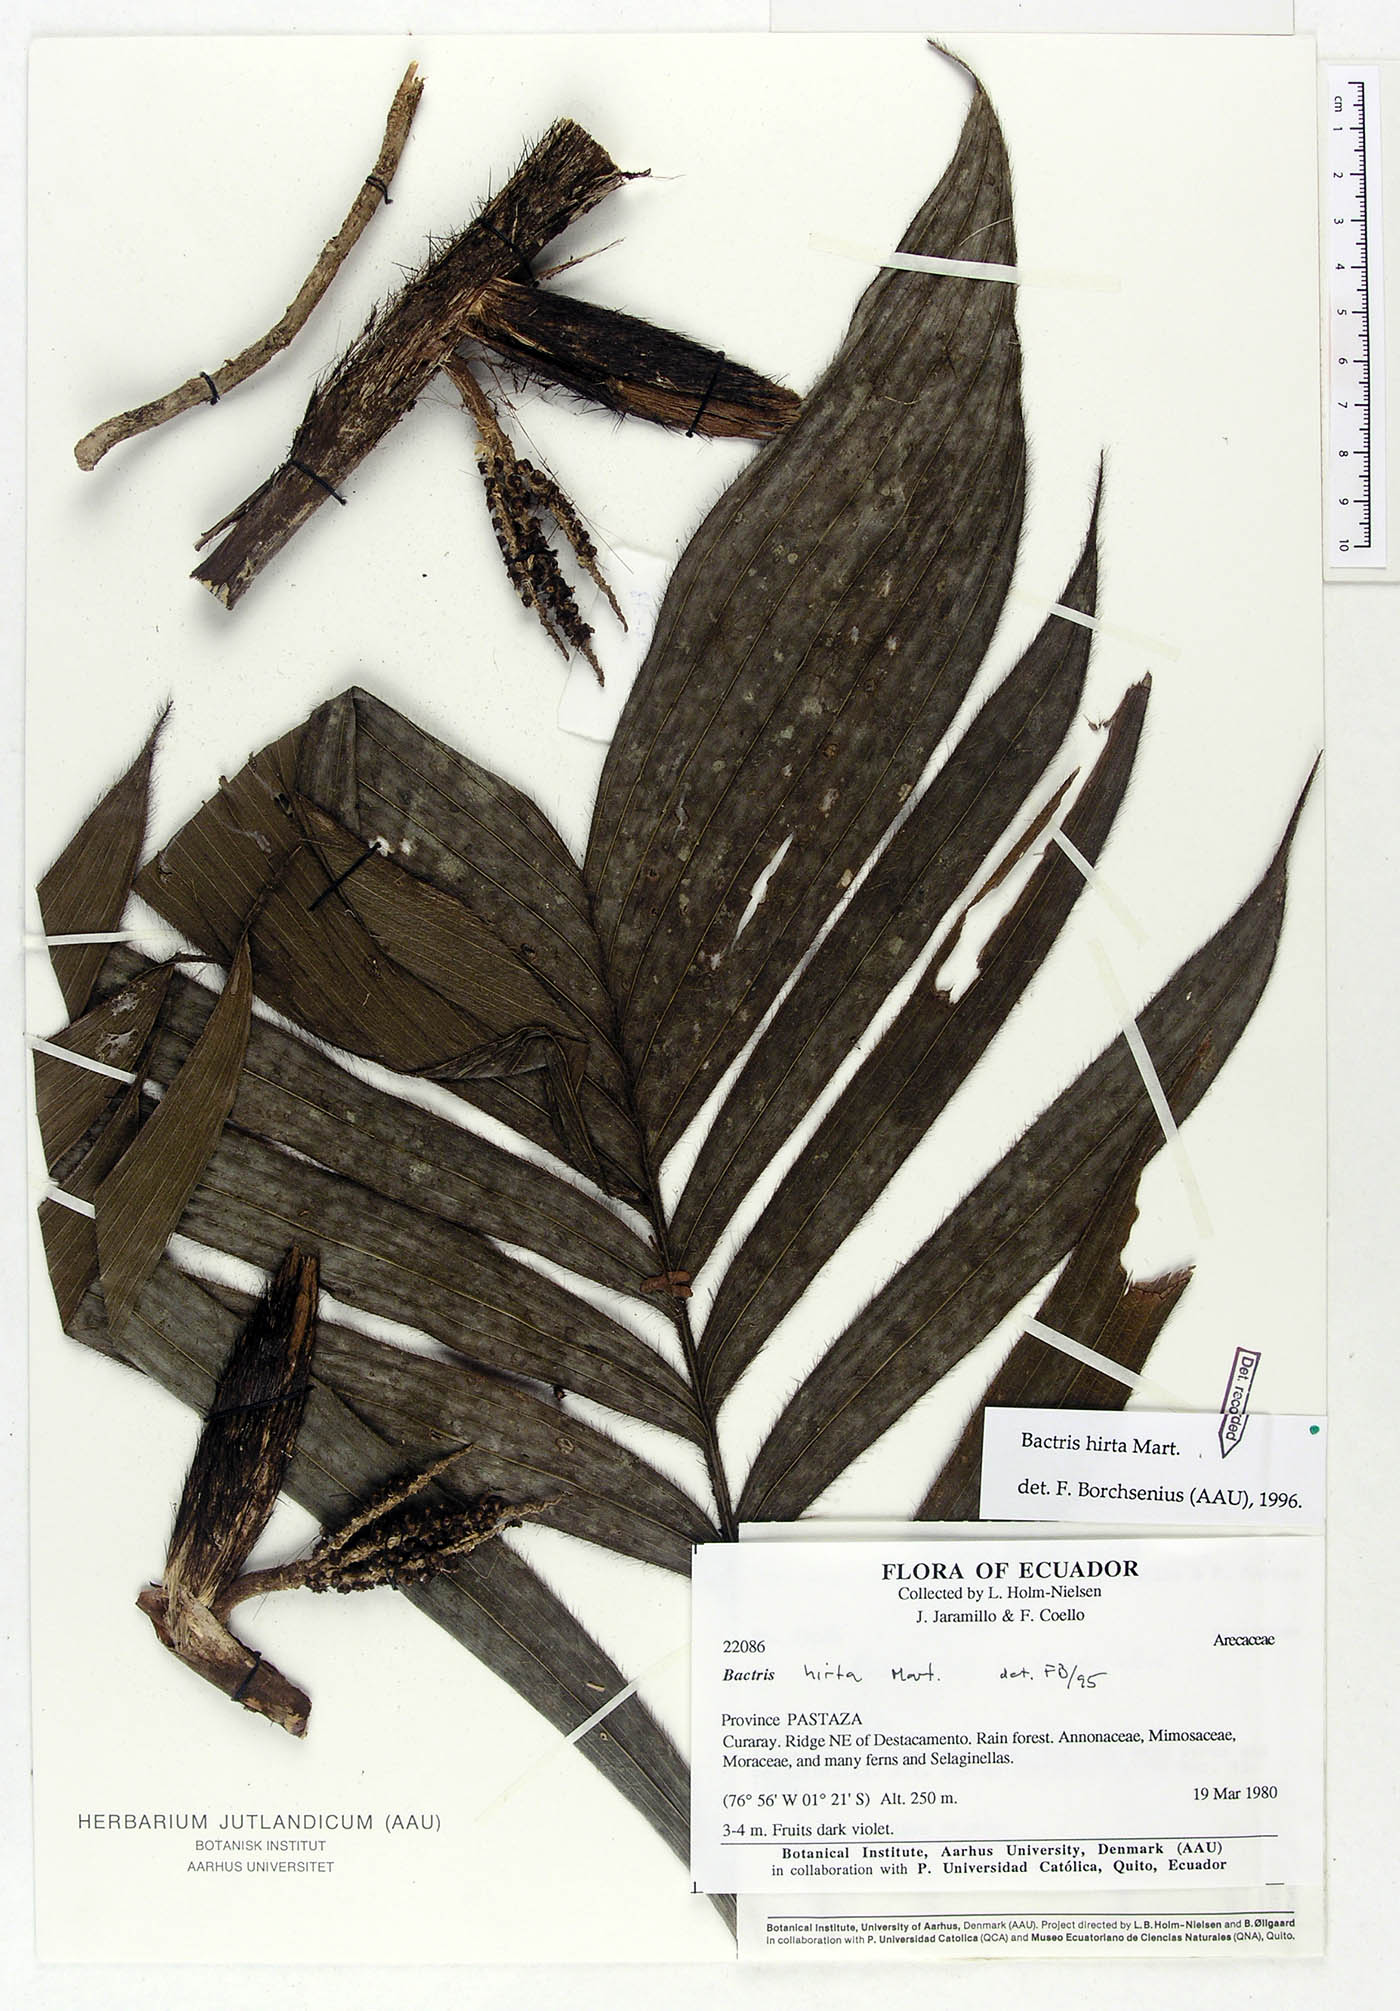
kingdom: Plantae
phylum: Tracheophyta
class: Liliopsida
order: Arecales
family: Arecaceae
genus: Bactris
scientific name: Bactris hirta
